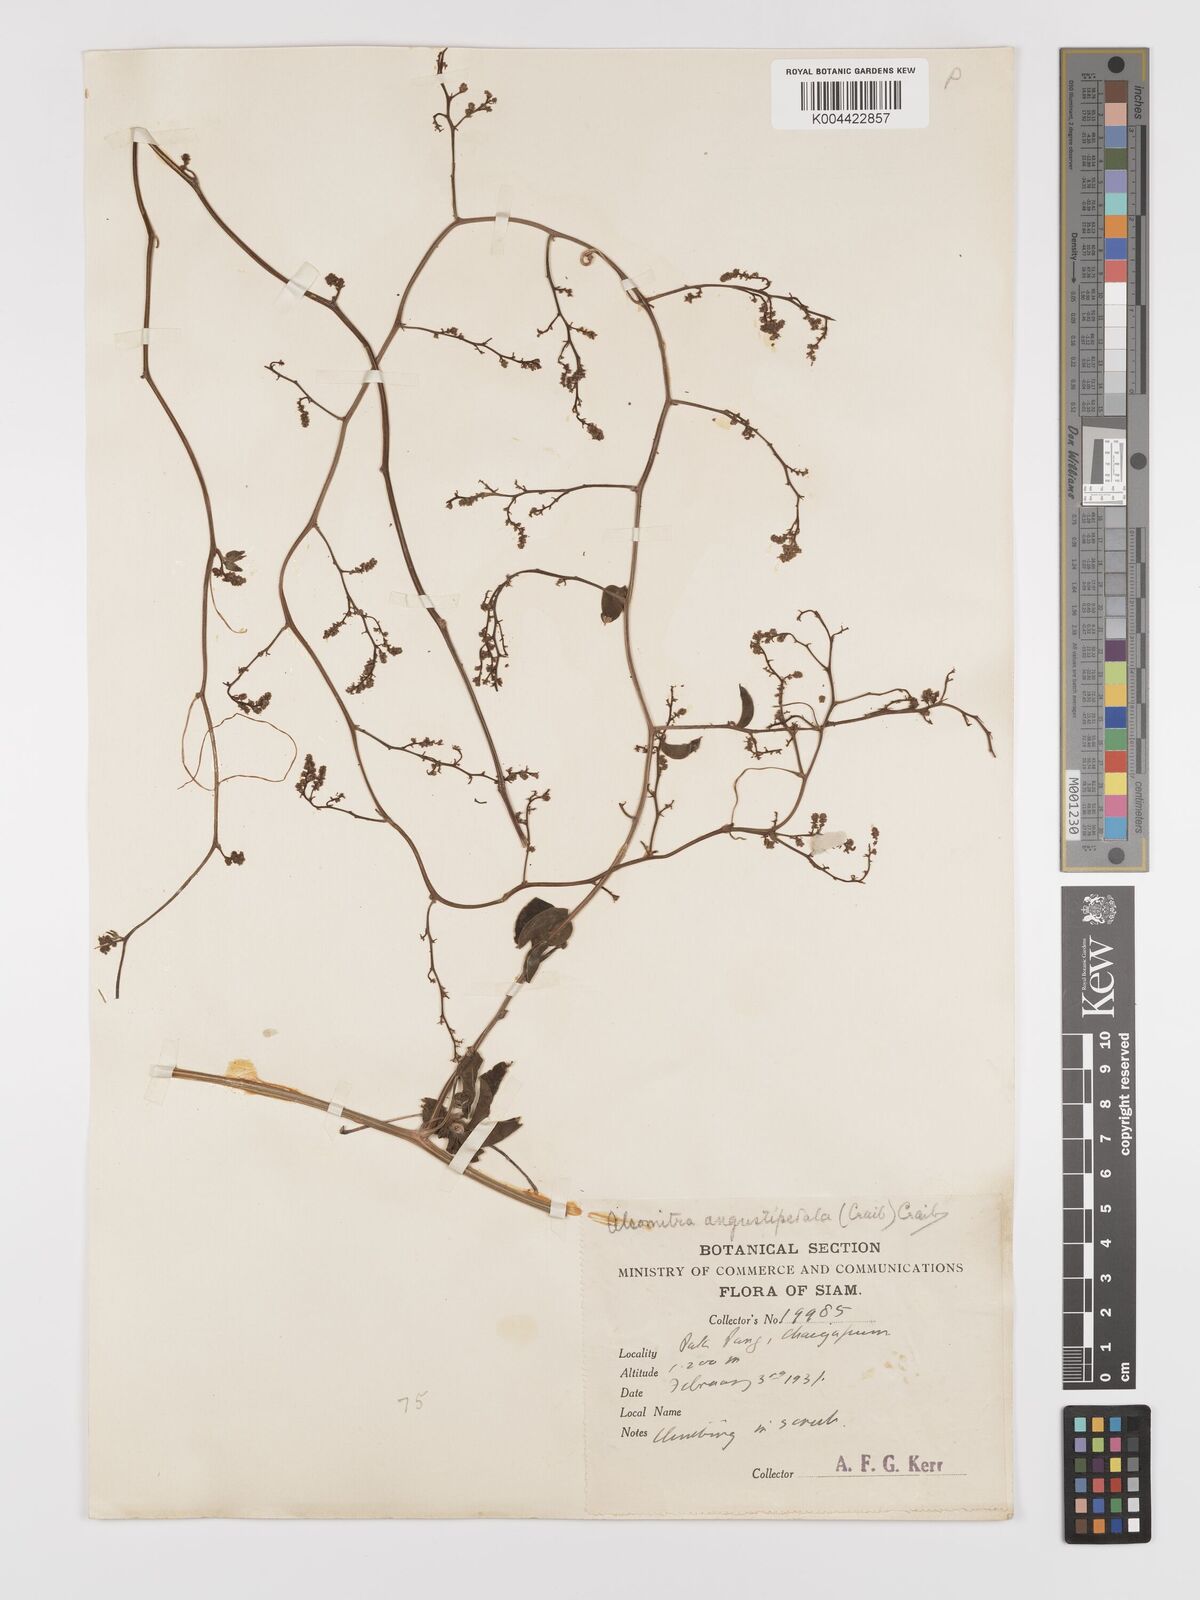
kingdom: Plantae
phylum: Tracheophyta
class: Magnoliopsida
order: Cucurbitales
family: Cucurbitaceae
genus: Neoalsomitra
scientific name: Neoalsomitra angustipetala
